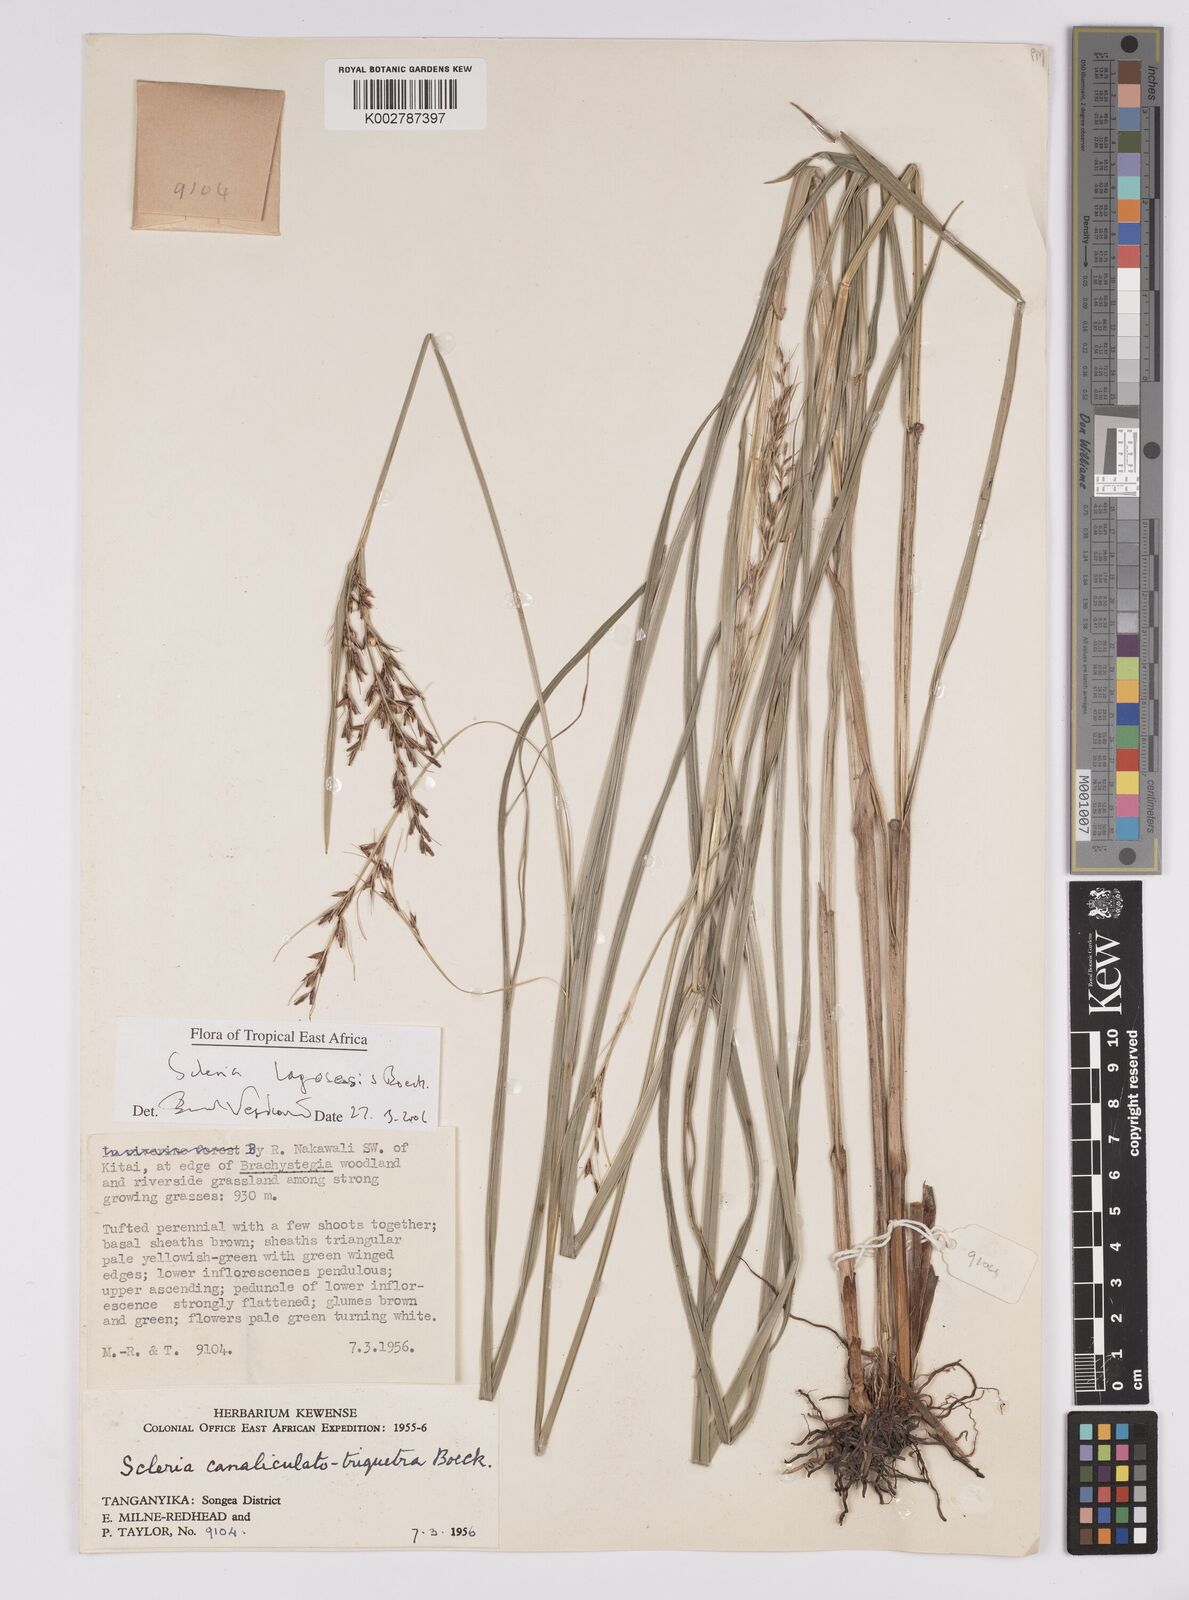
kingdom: Plantae
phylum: Tracheophyta
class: Liliopsida
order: Poales
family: Cyperaceae
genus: Scleria
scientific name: Scleria lagoensis
